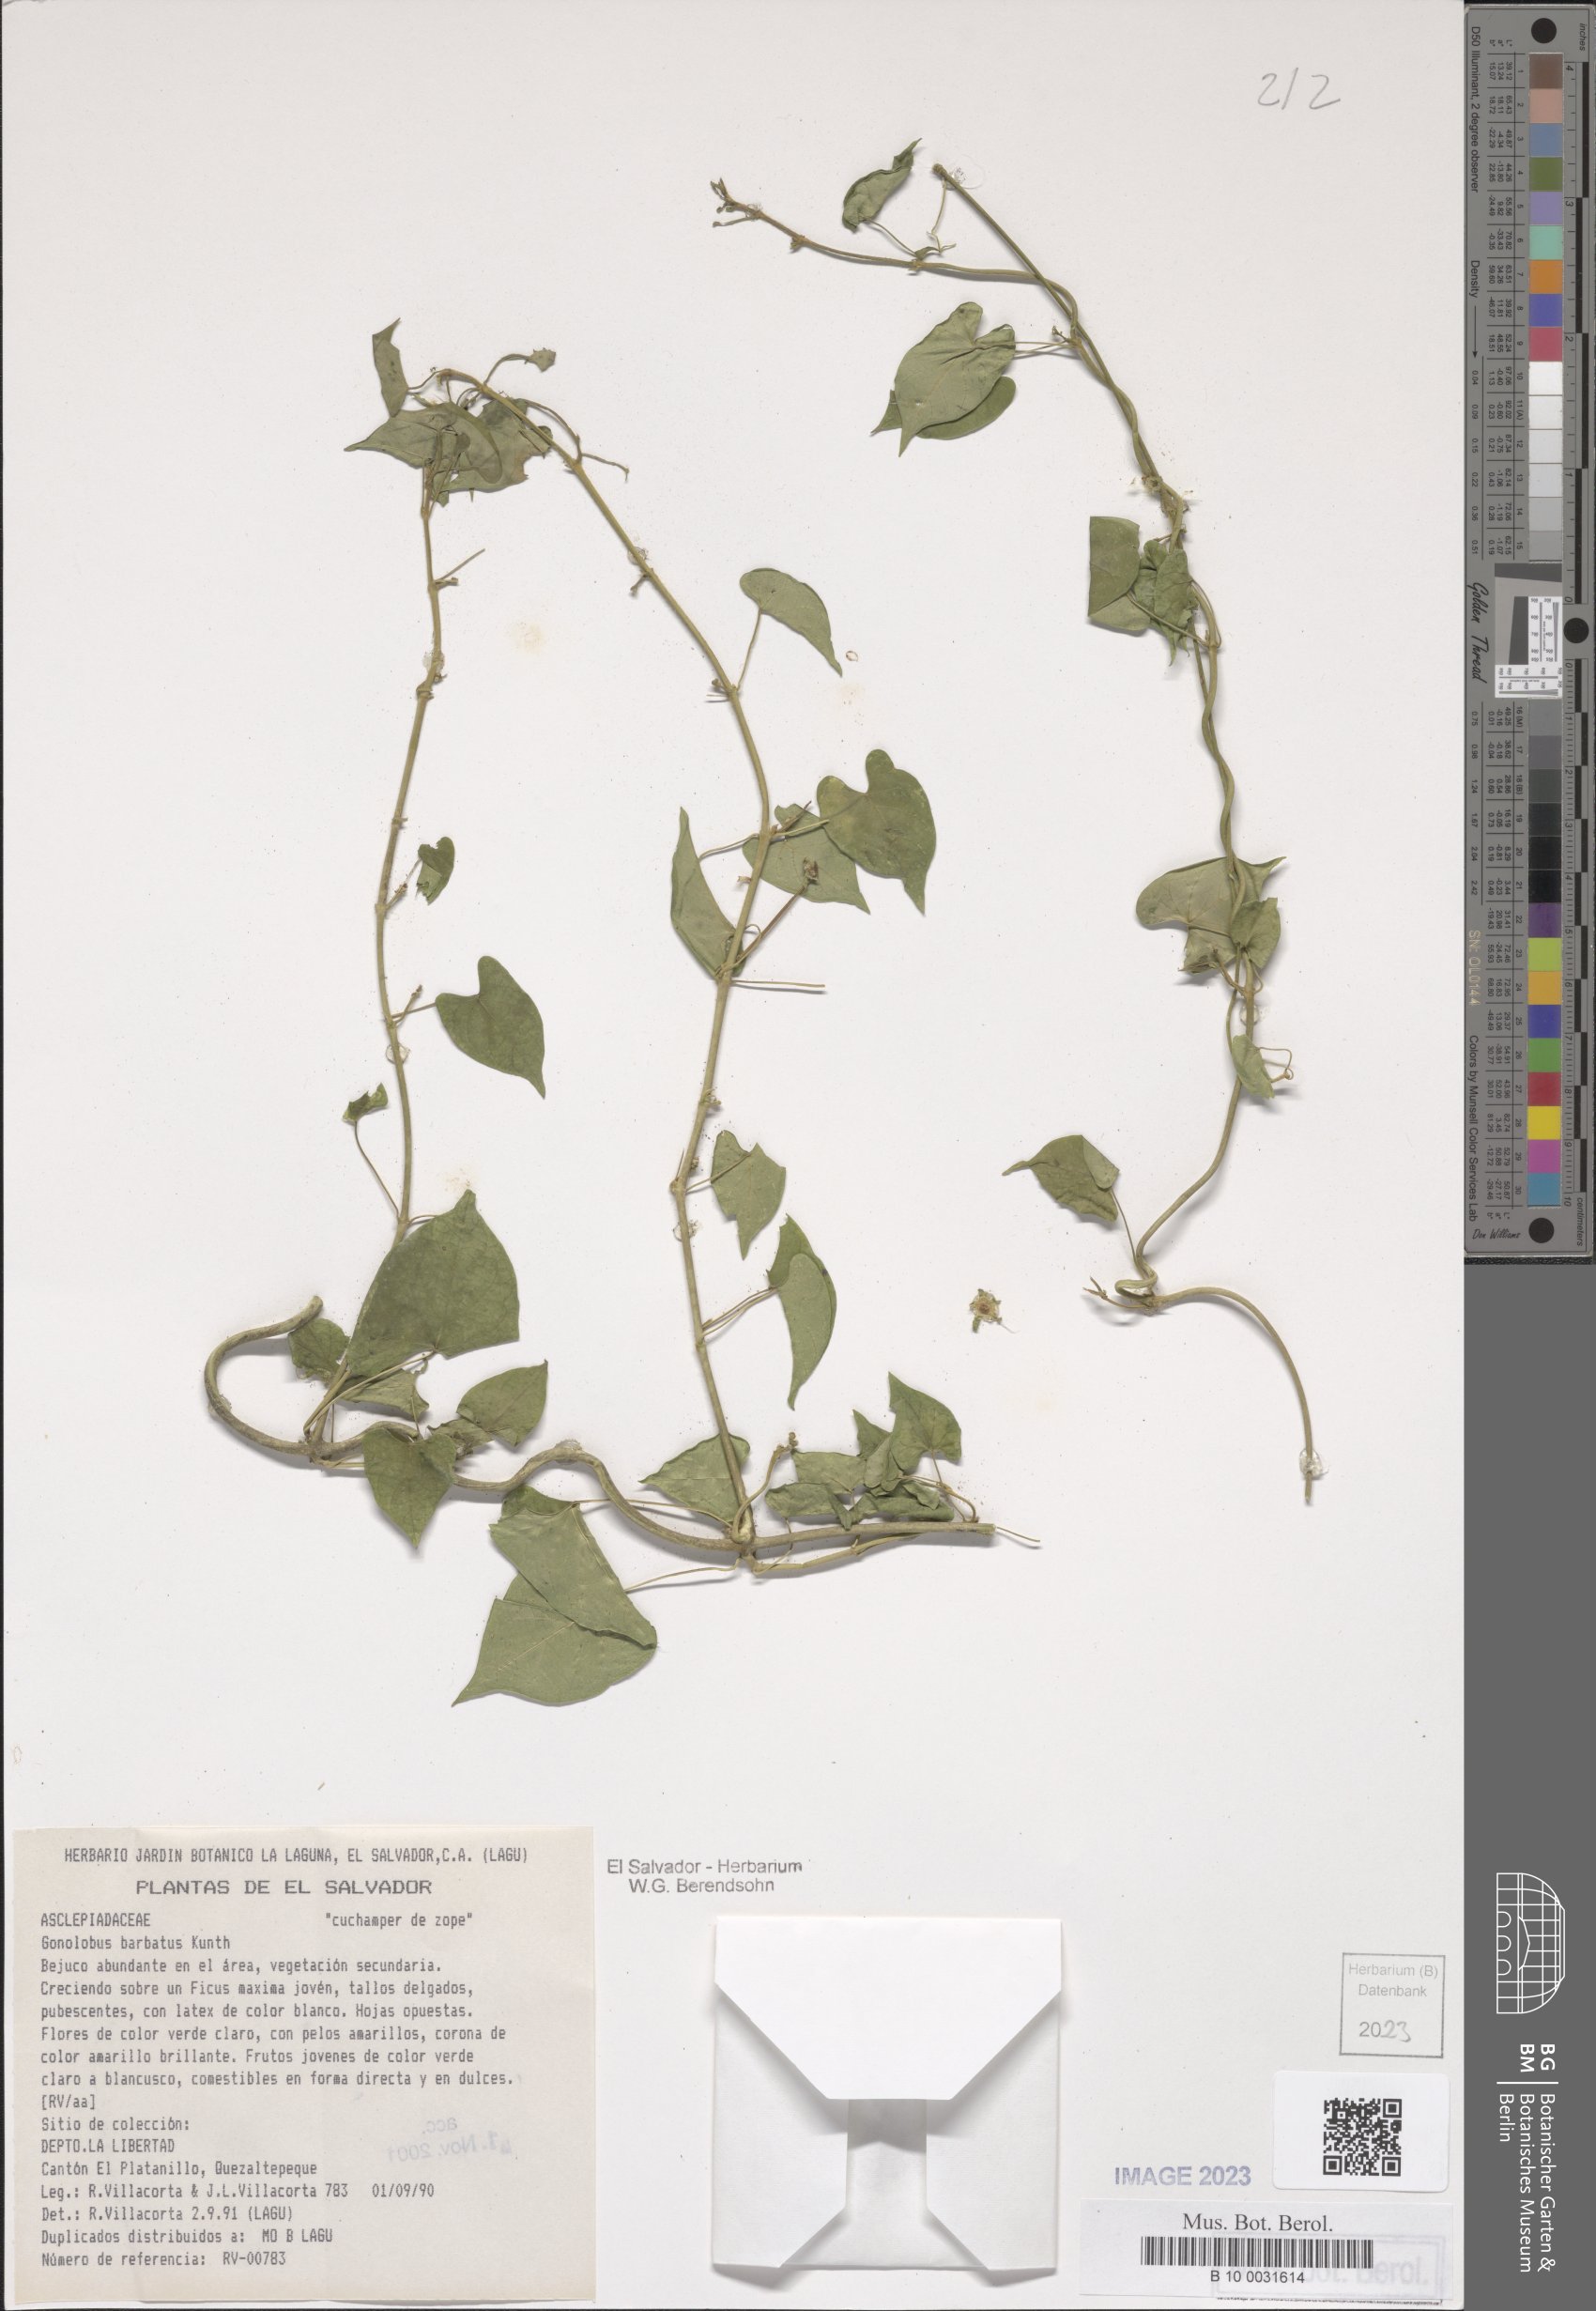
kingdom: Plantae
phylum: Tracheophyta
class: Magnoliopsida
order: Gentianales
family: Apocynaceae
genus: Gonolobus
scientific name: Gonolobus barbatus
